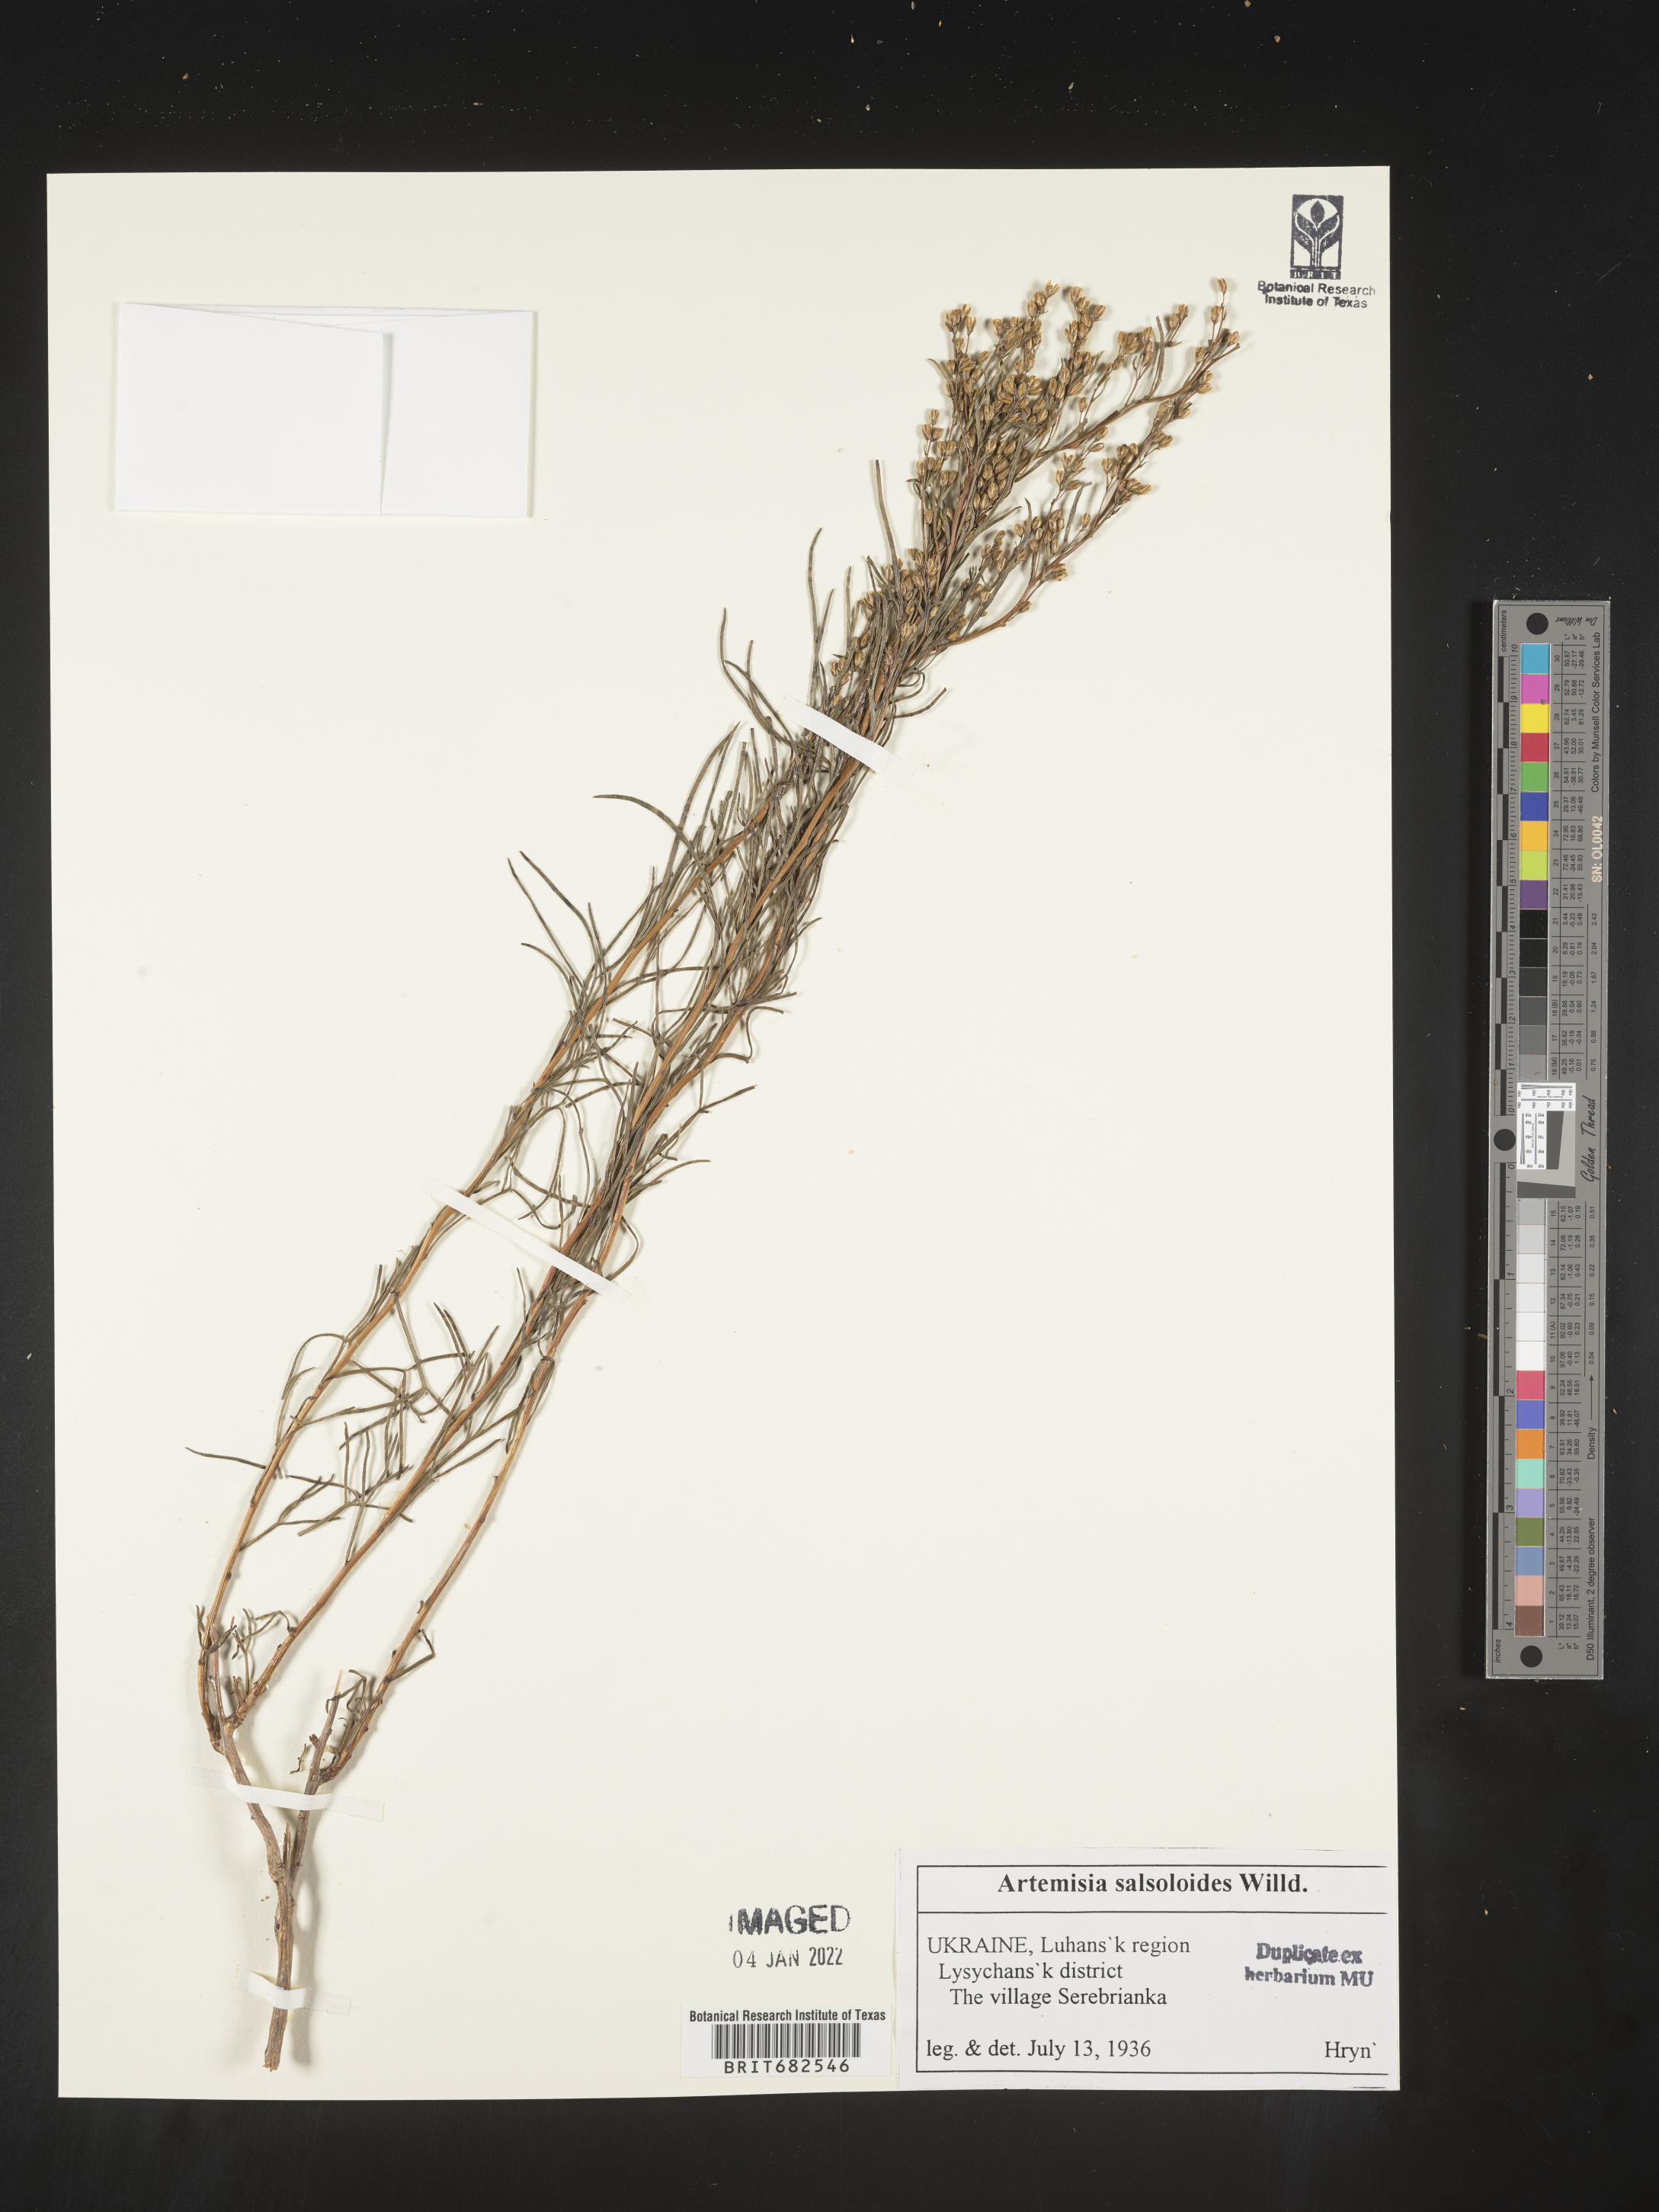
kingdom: Plantae
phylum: Tracheophyta
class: Magnoliopsida
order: Asterales
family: Asteraceae
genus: Artemisia
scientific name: Artemisia
